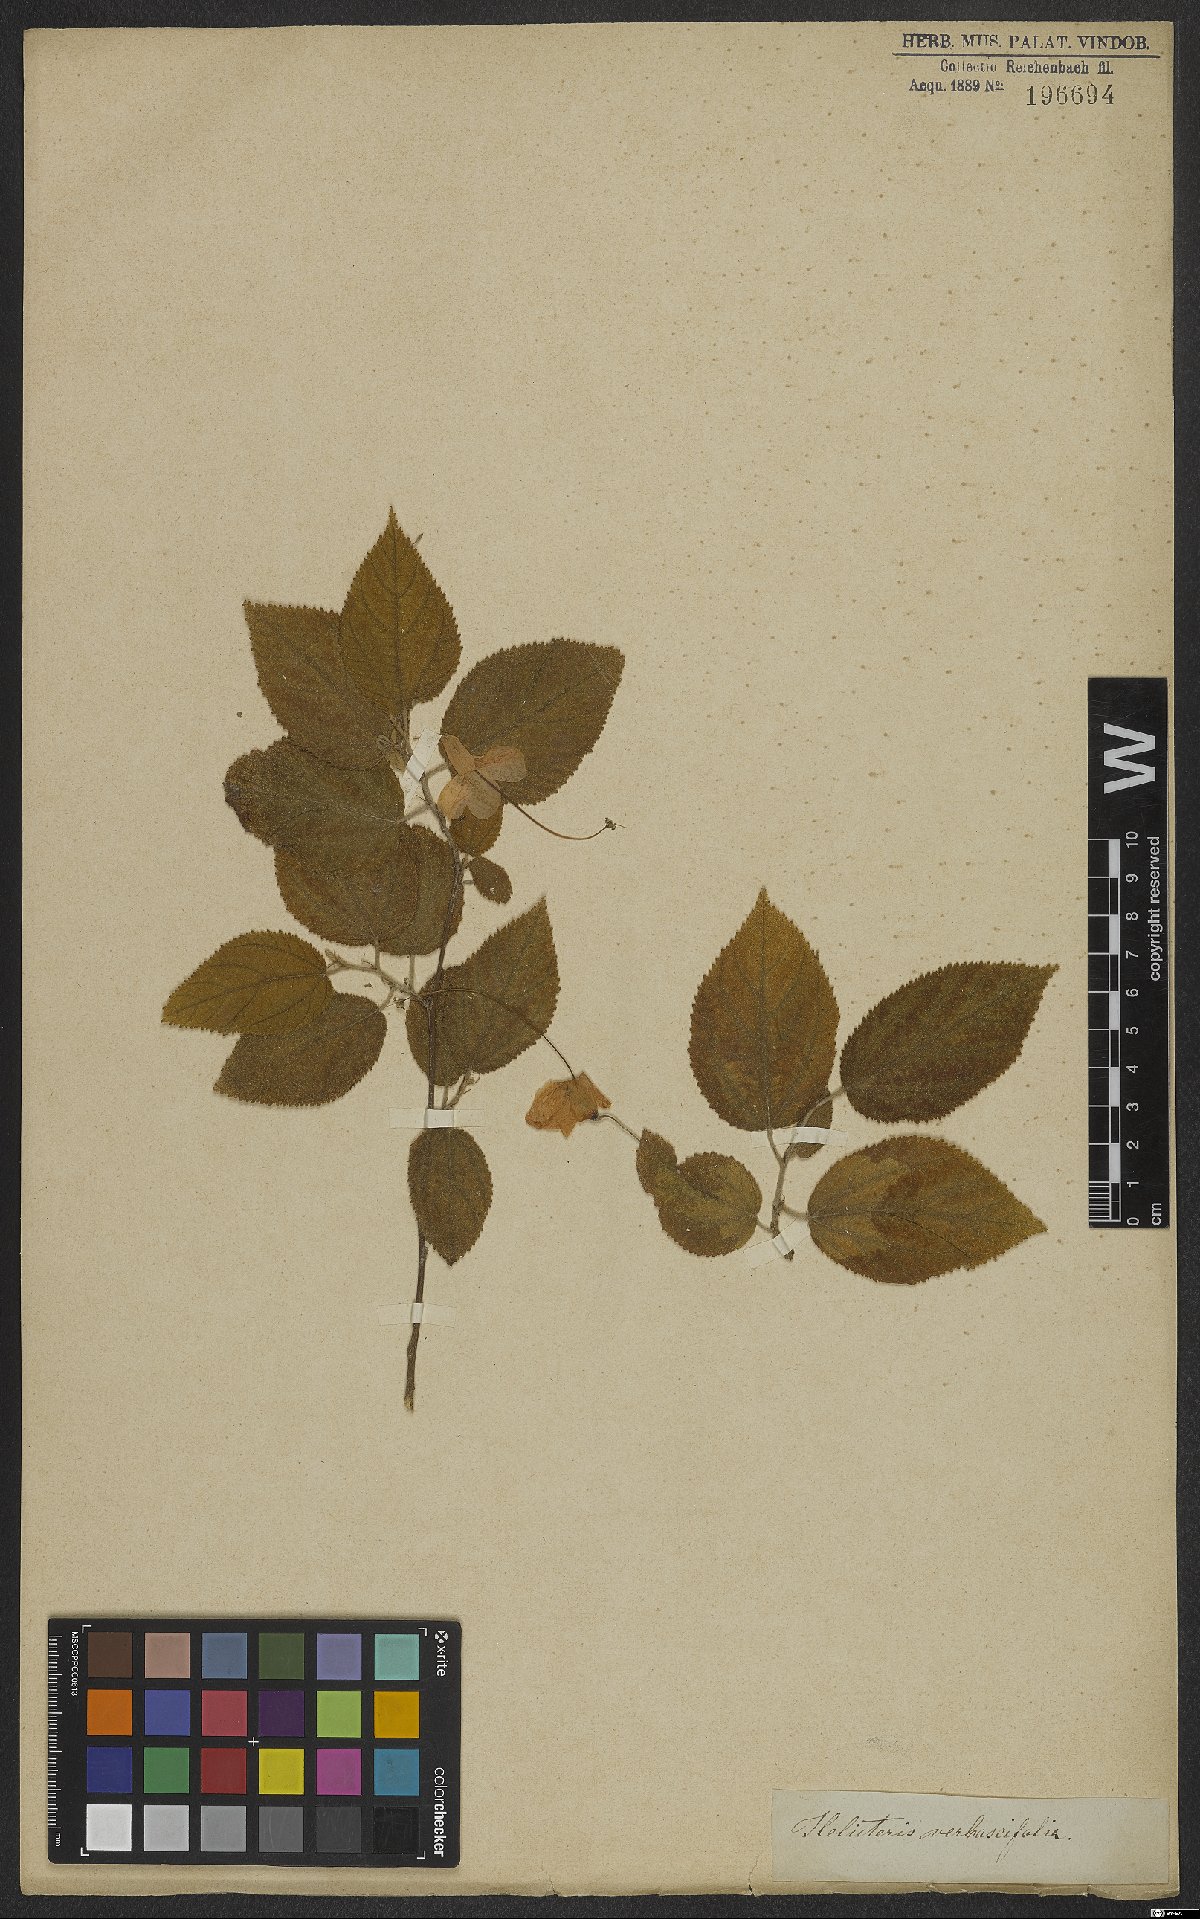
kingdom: Plantae
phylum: Tracheophyta
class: Magnoliopsida
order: Malvales
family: Malvaceae
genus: Helicteres
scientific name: Helicteres ovata
